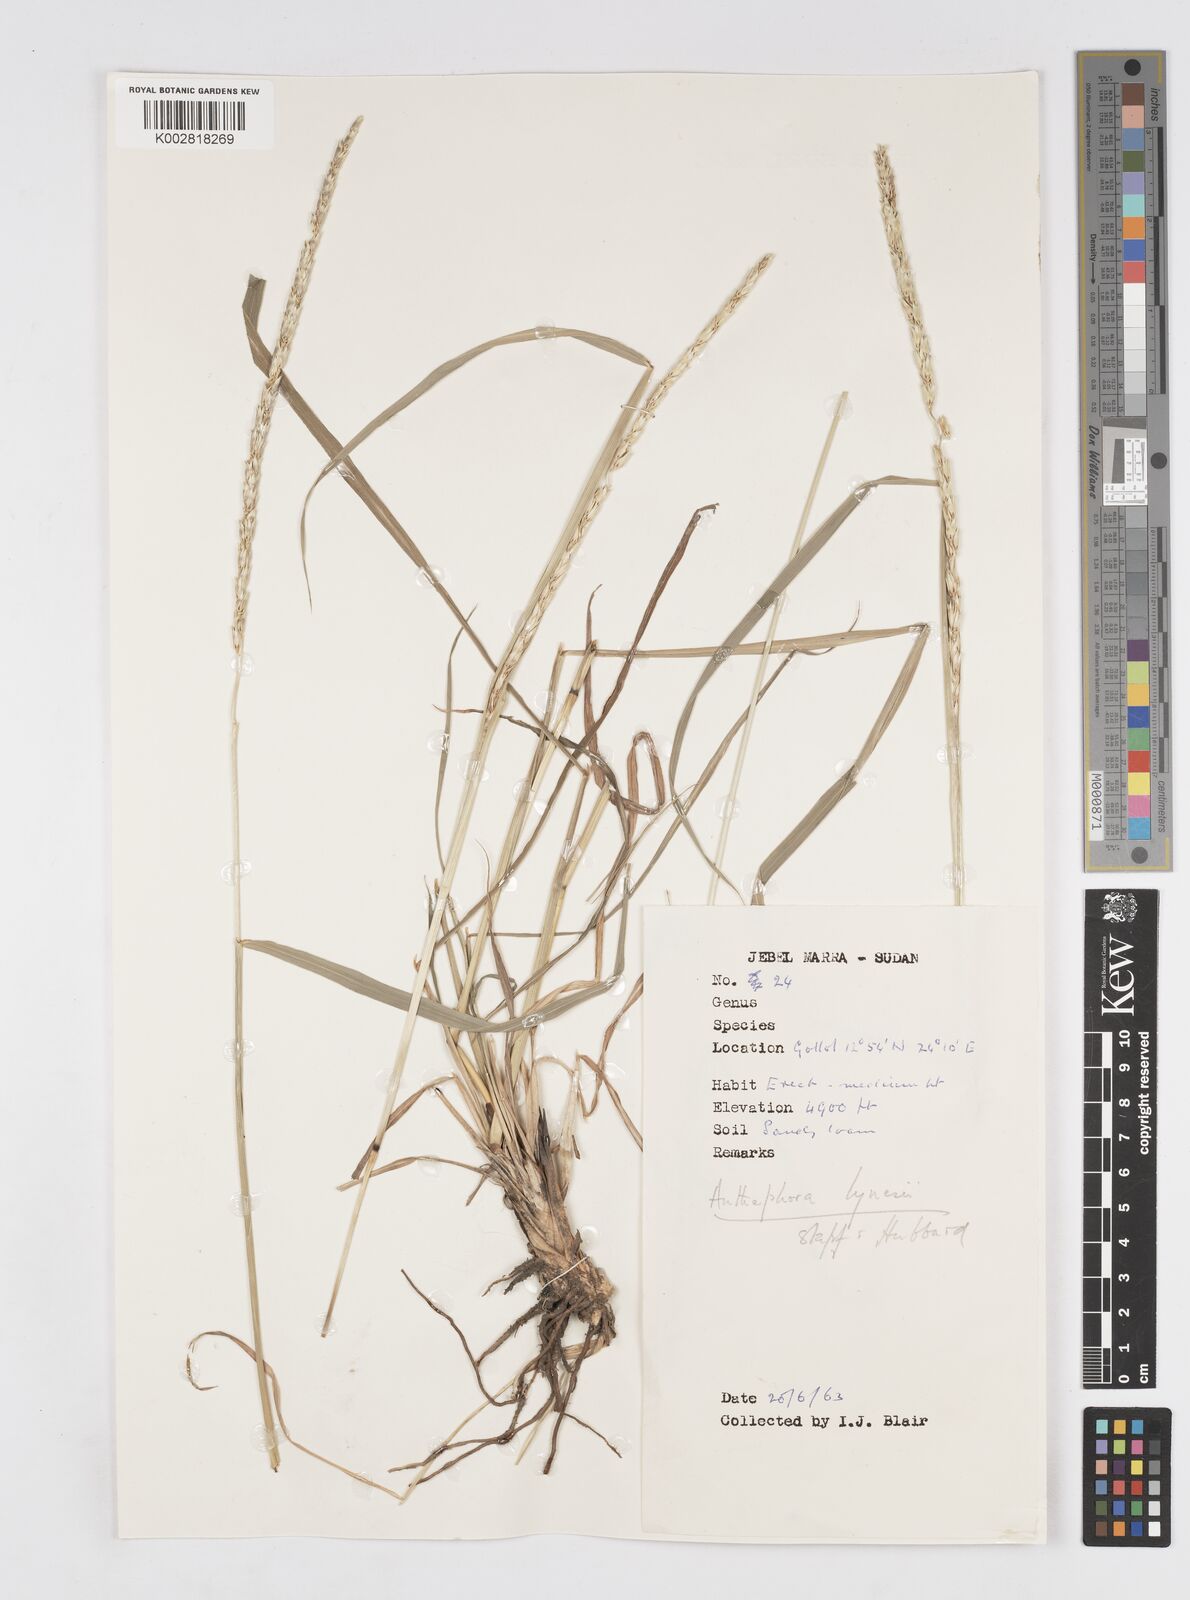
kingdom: Plantae
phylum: Tracheophyta
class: Liliopsida
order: Poales
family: Poaceae
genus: Anthephora
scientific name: Anthephora nigritana
